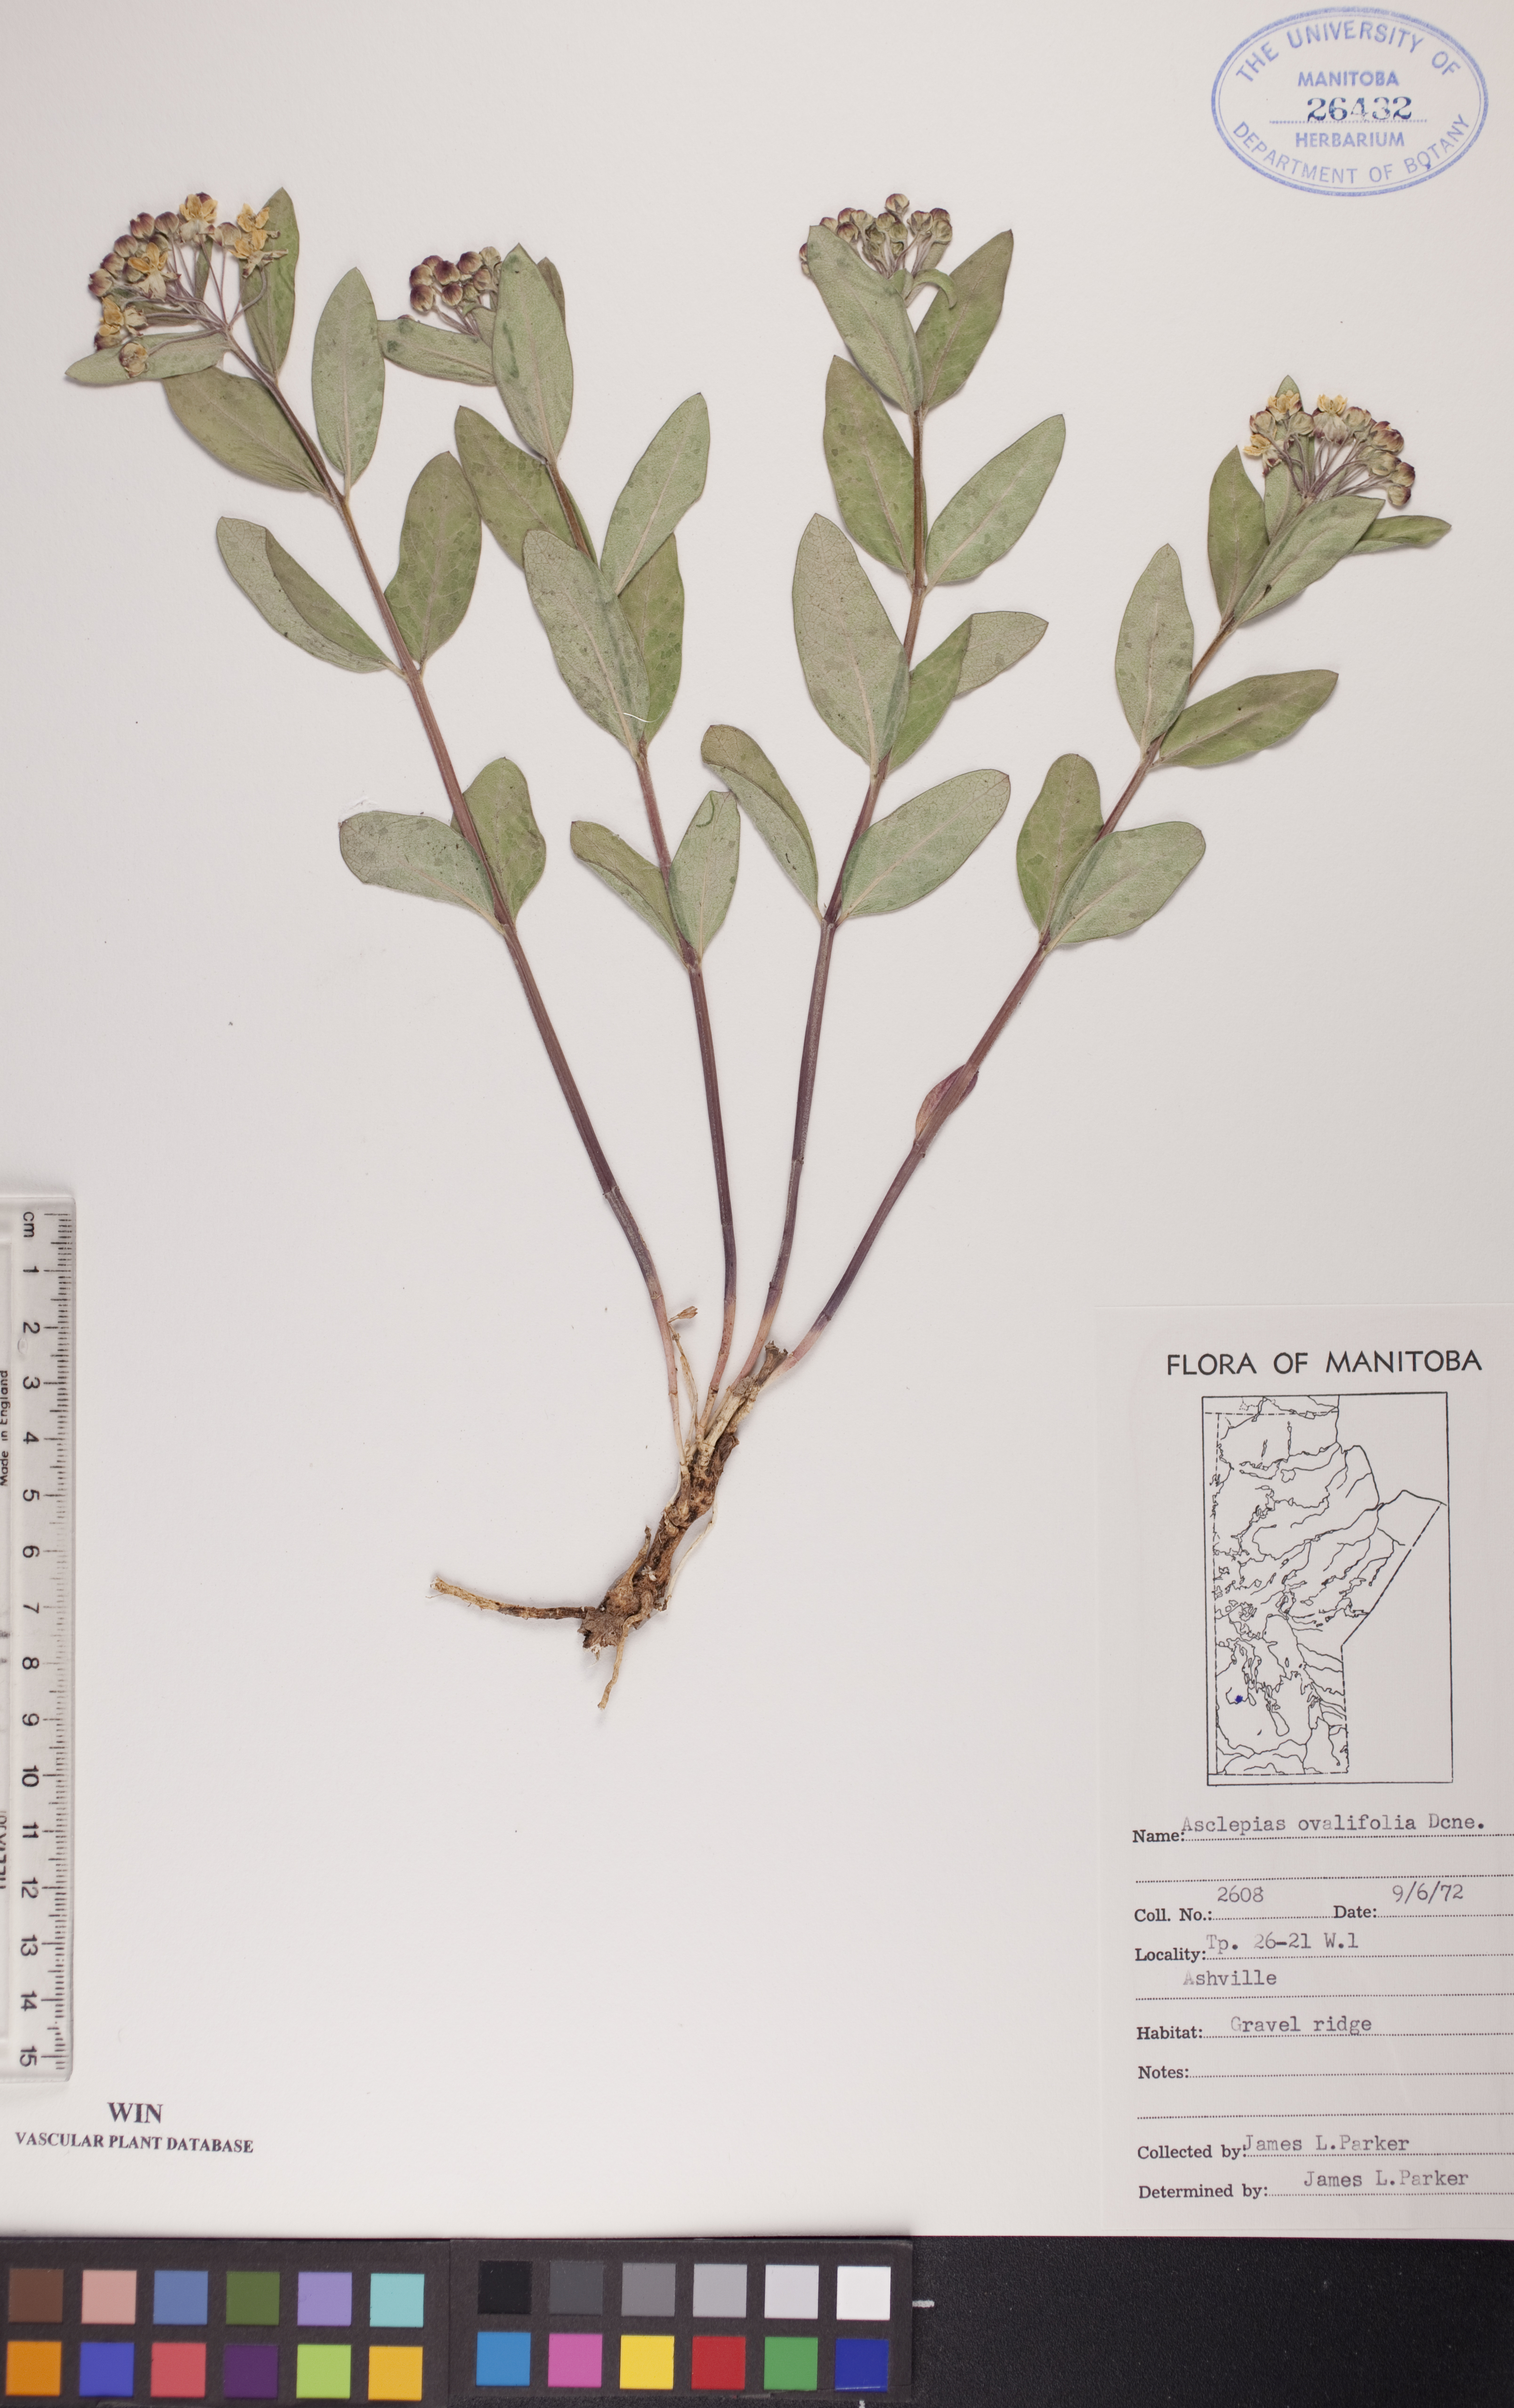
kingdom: Plantae
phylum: Tracheophyta
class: Magnoliopsida
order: Gentianales
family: Apocynaceae
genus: Asclepias
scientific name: Asclepias ovalifolia
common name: Dwarf milkweed
